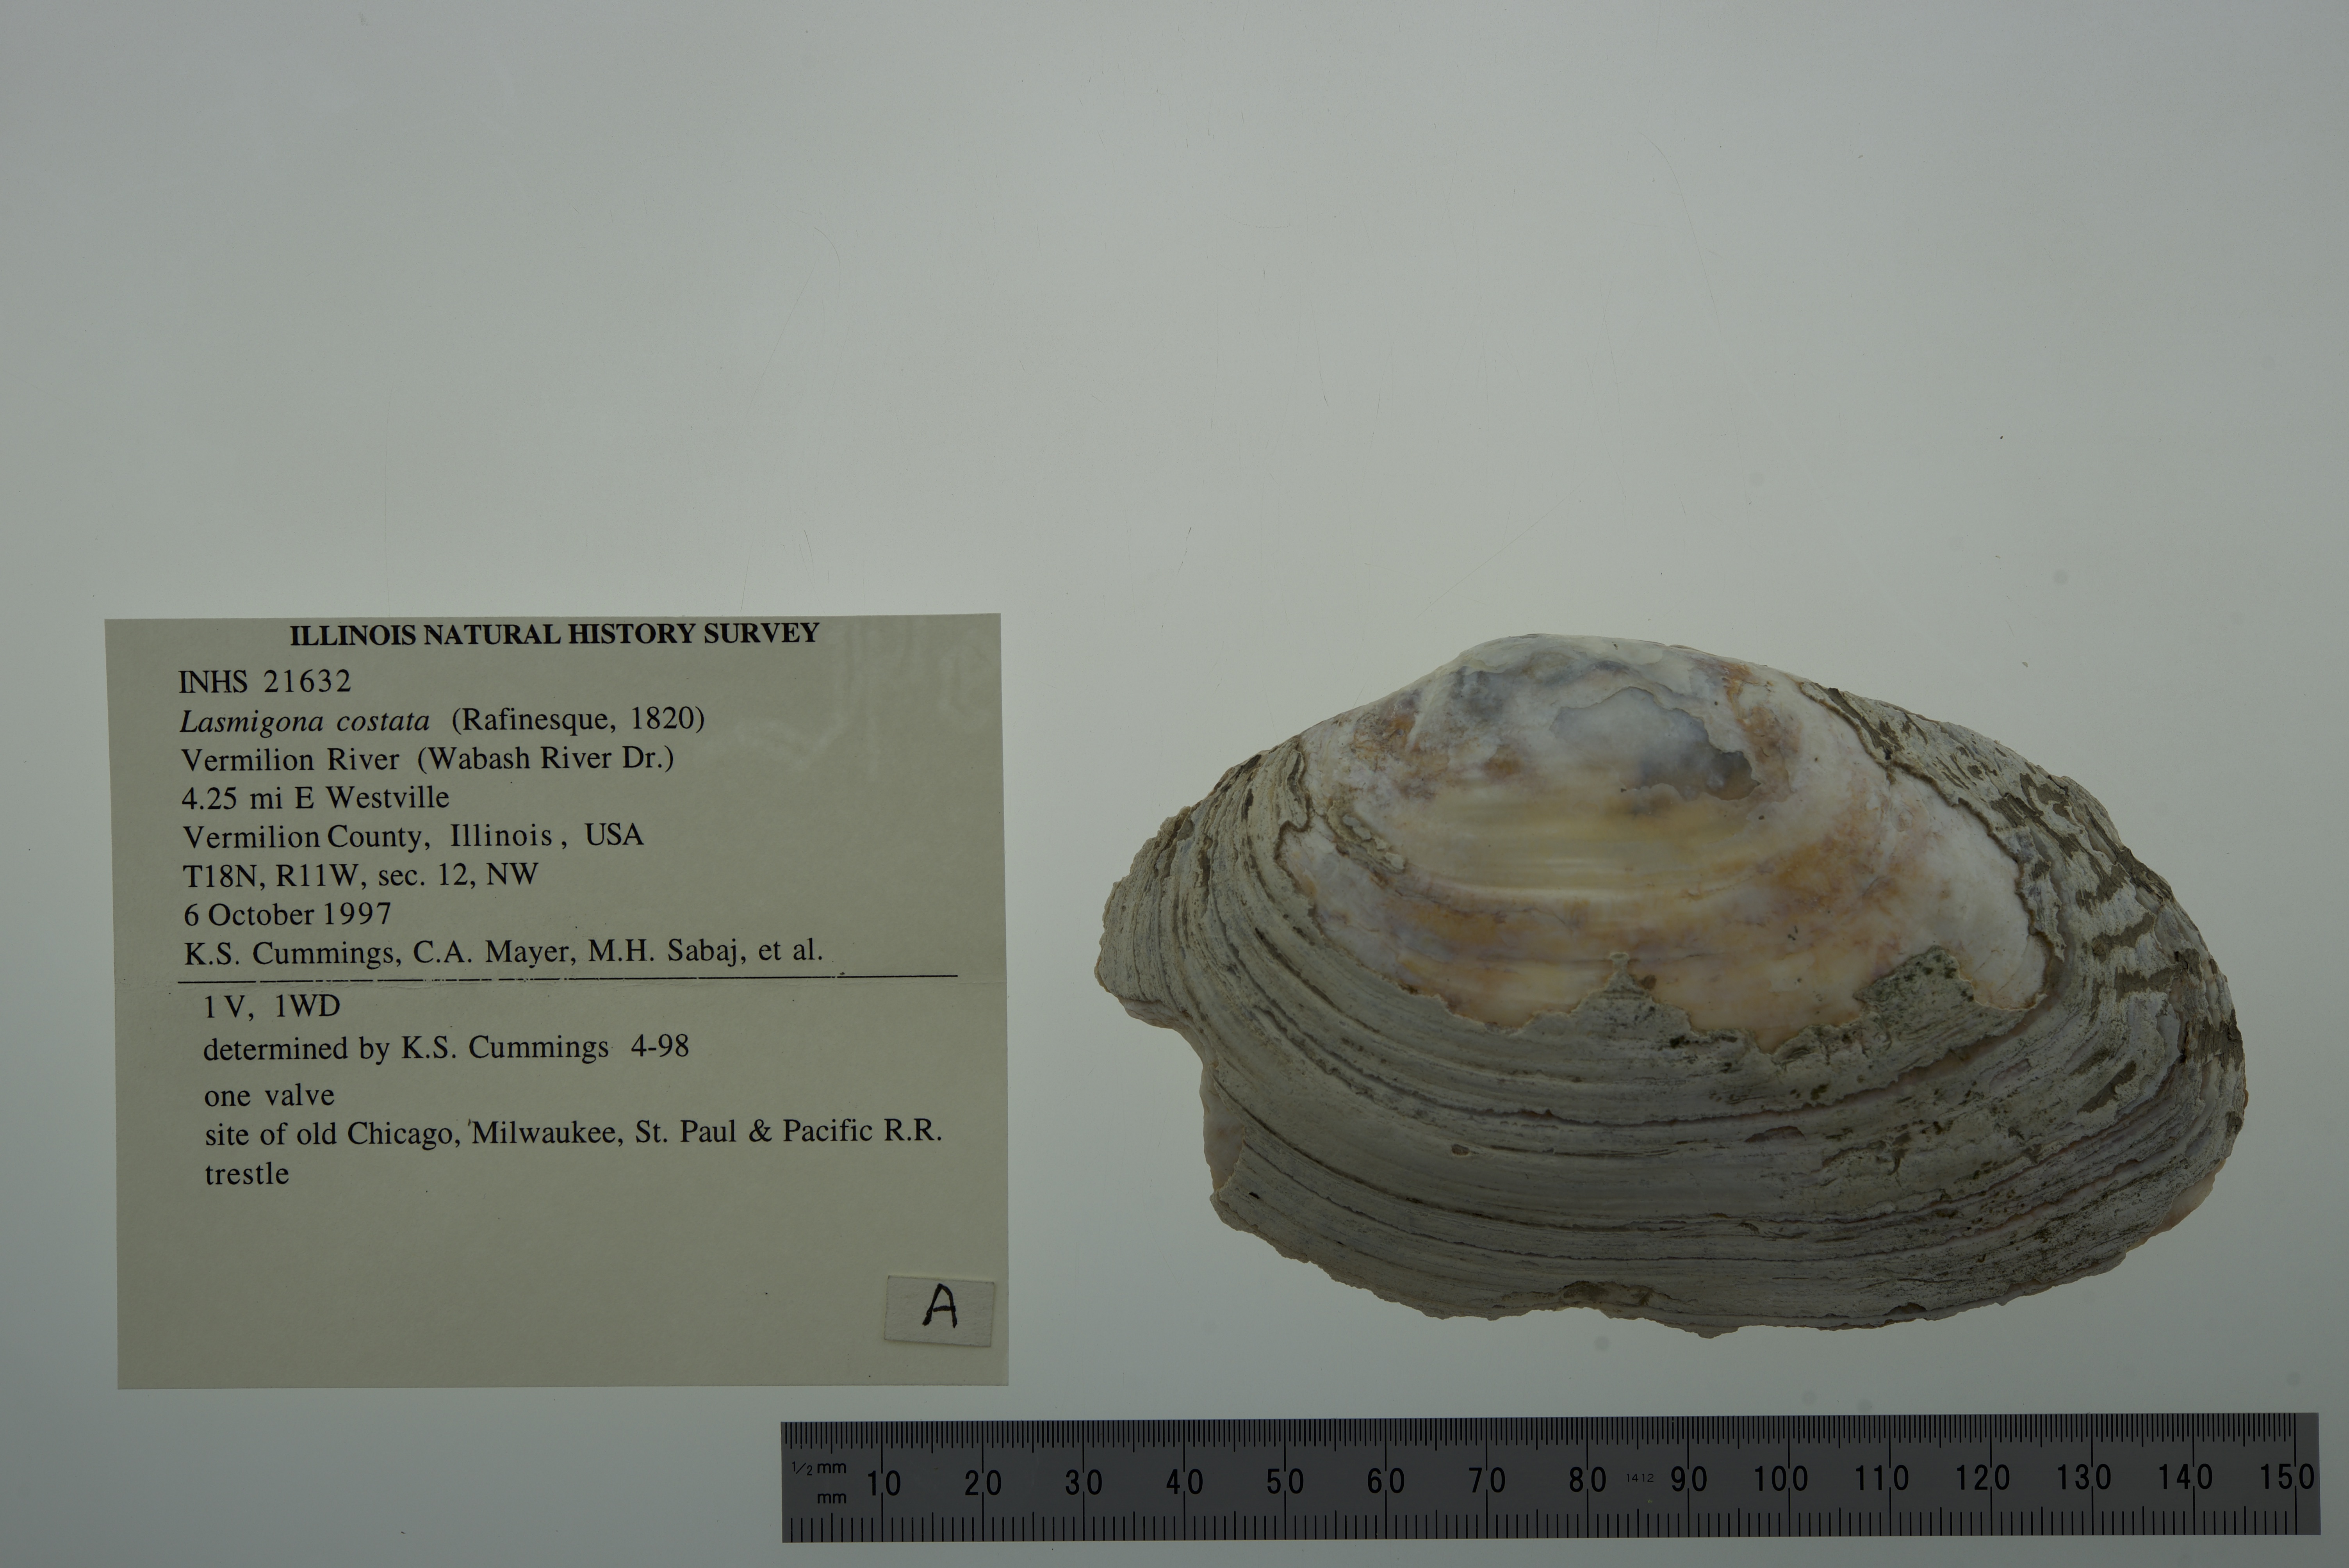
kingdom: Animalia
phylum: Mollusca
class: Bivalvia
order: Unionida
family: Unionidae
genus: Lasmigona
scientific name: Lasmigona costata
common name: Flutedshell
